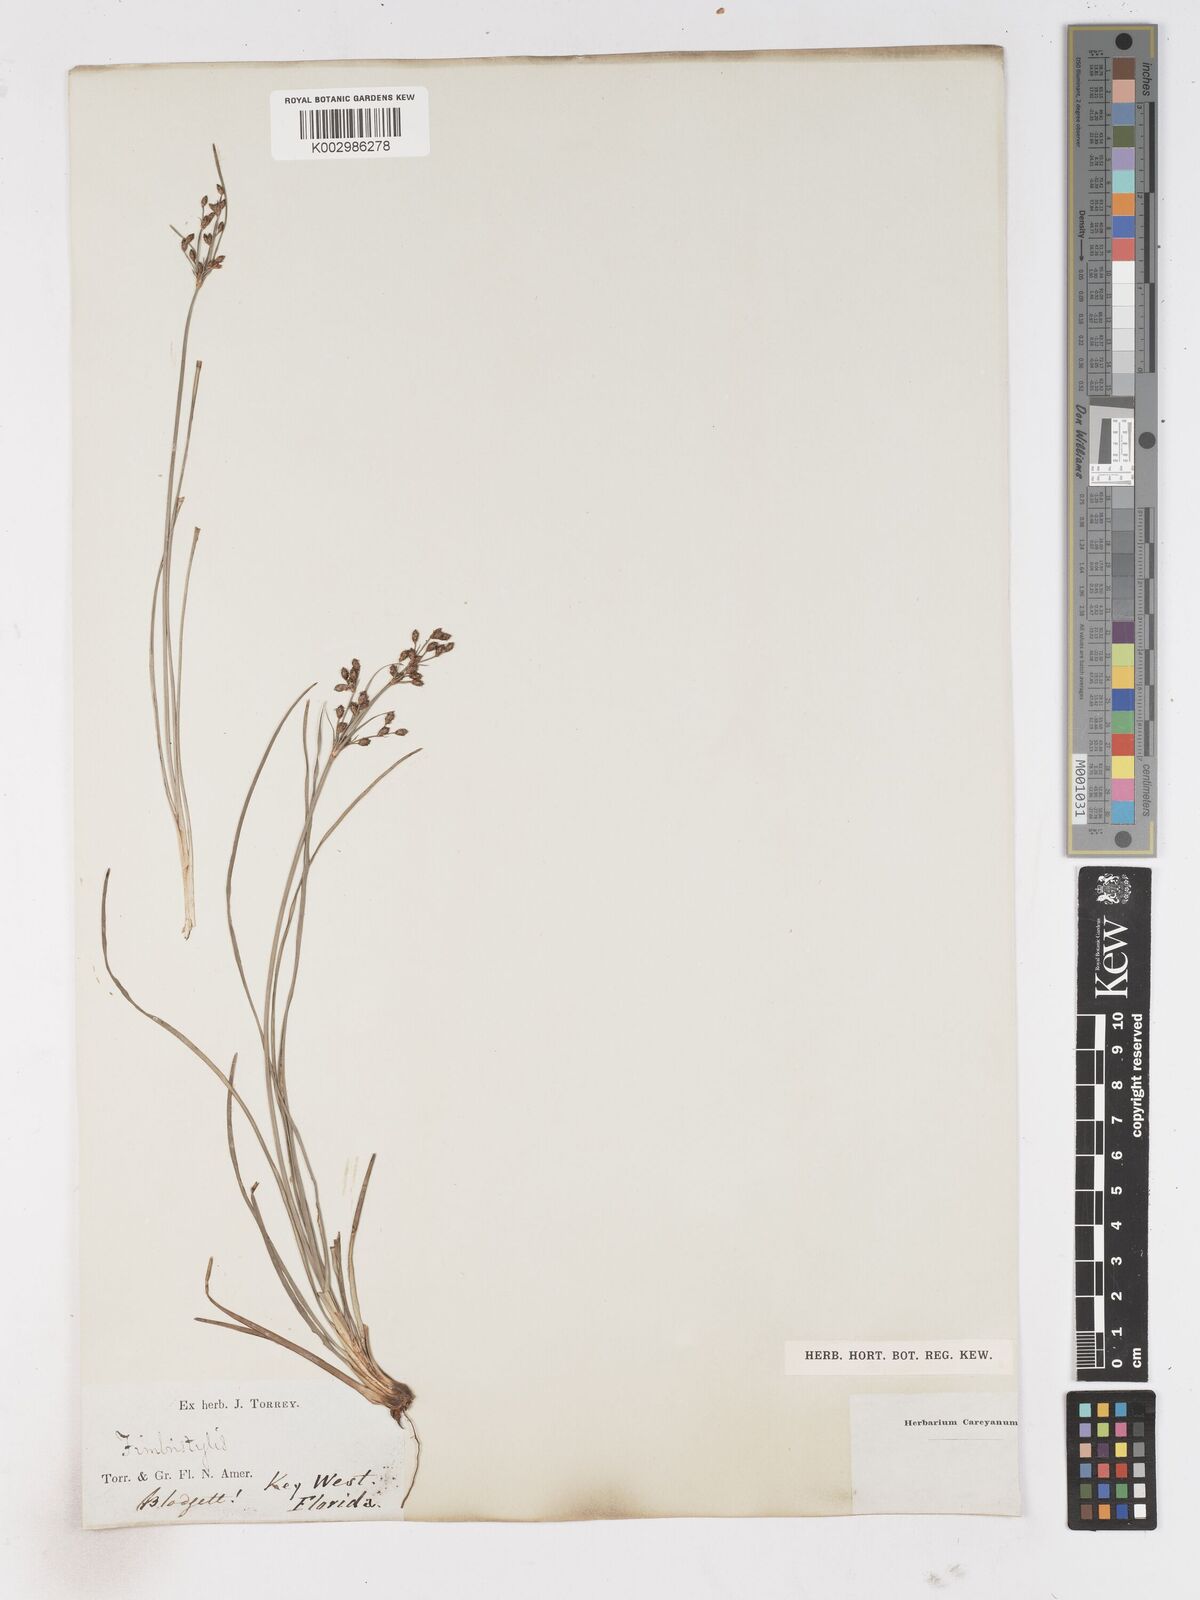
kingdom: Plantae
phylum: Tracheophyta
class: Liliopsida
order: Poales
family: Cyperaceae
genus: Fimbristylis
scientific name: Fimbristylis
